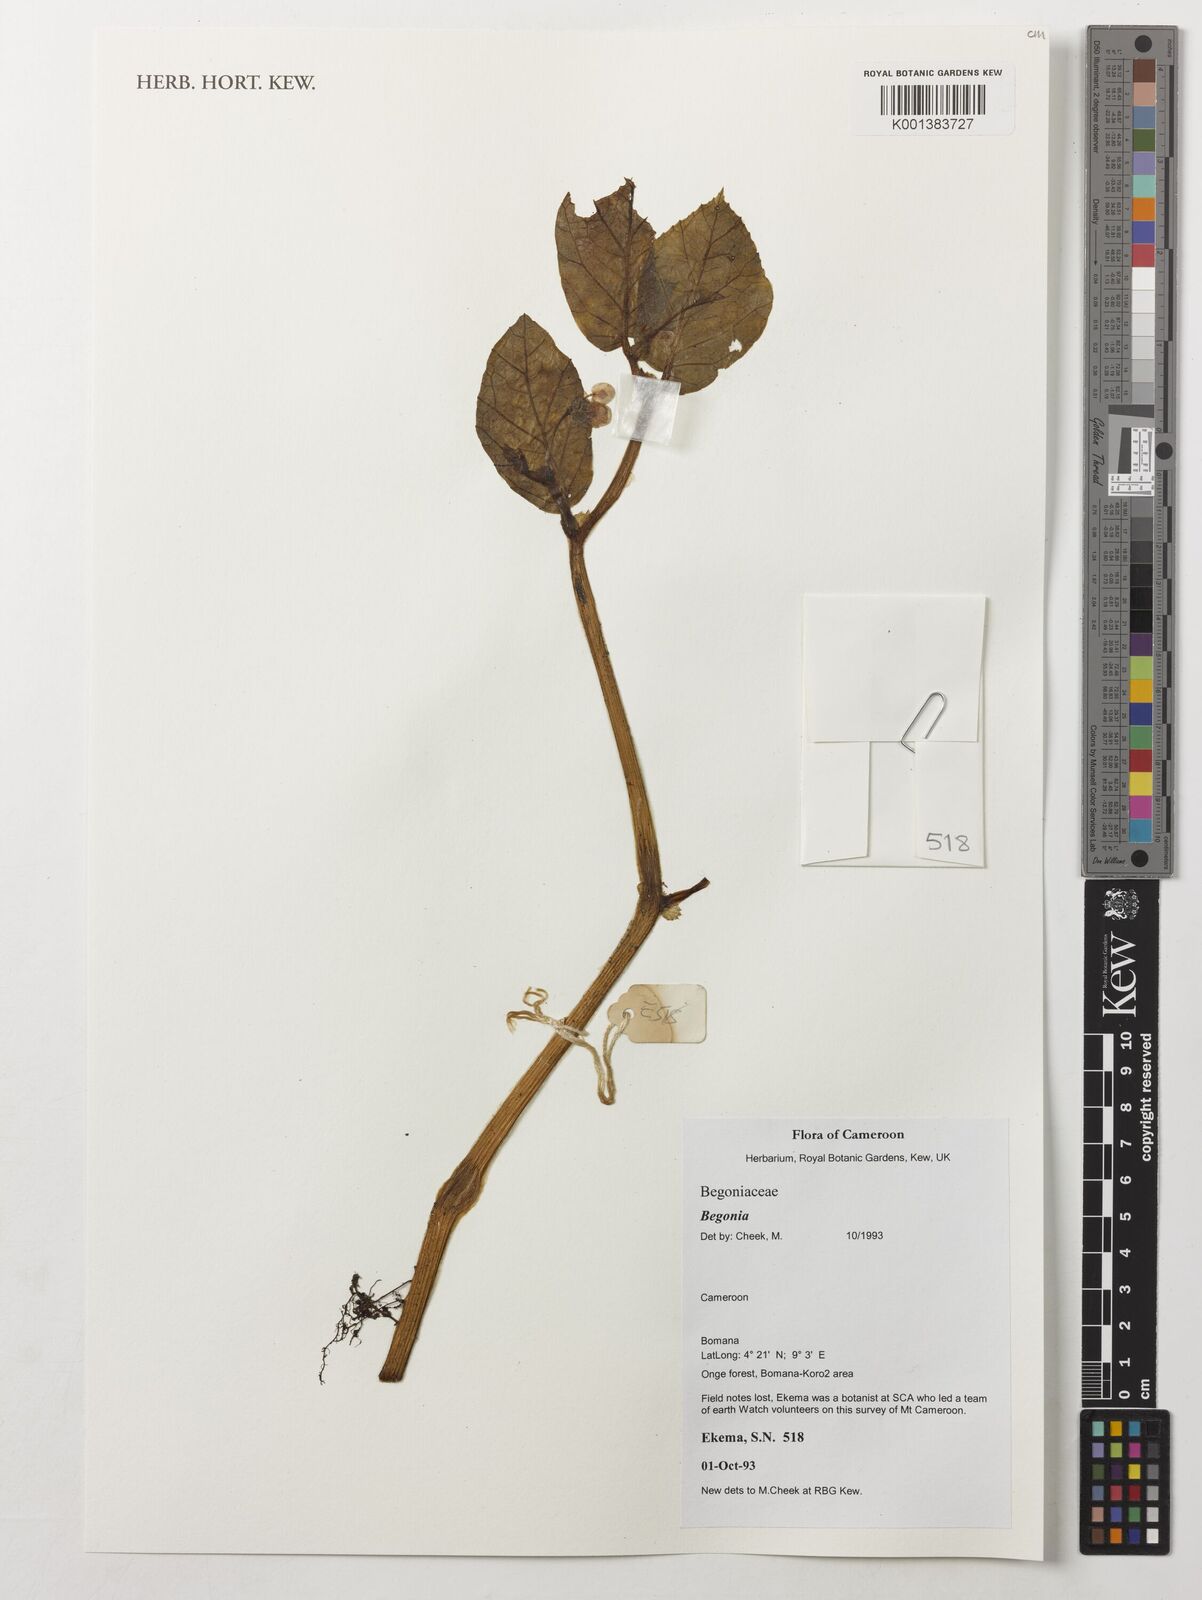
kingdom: Plantae
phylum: Tracheophyta
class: Magnoliopsida
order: Cucurbitales
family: Begoniaceae
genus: Begonia
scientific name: Begonia
